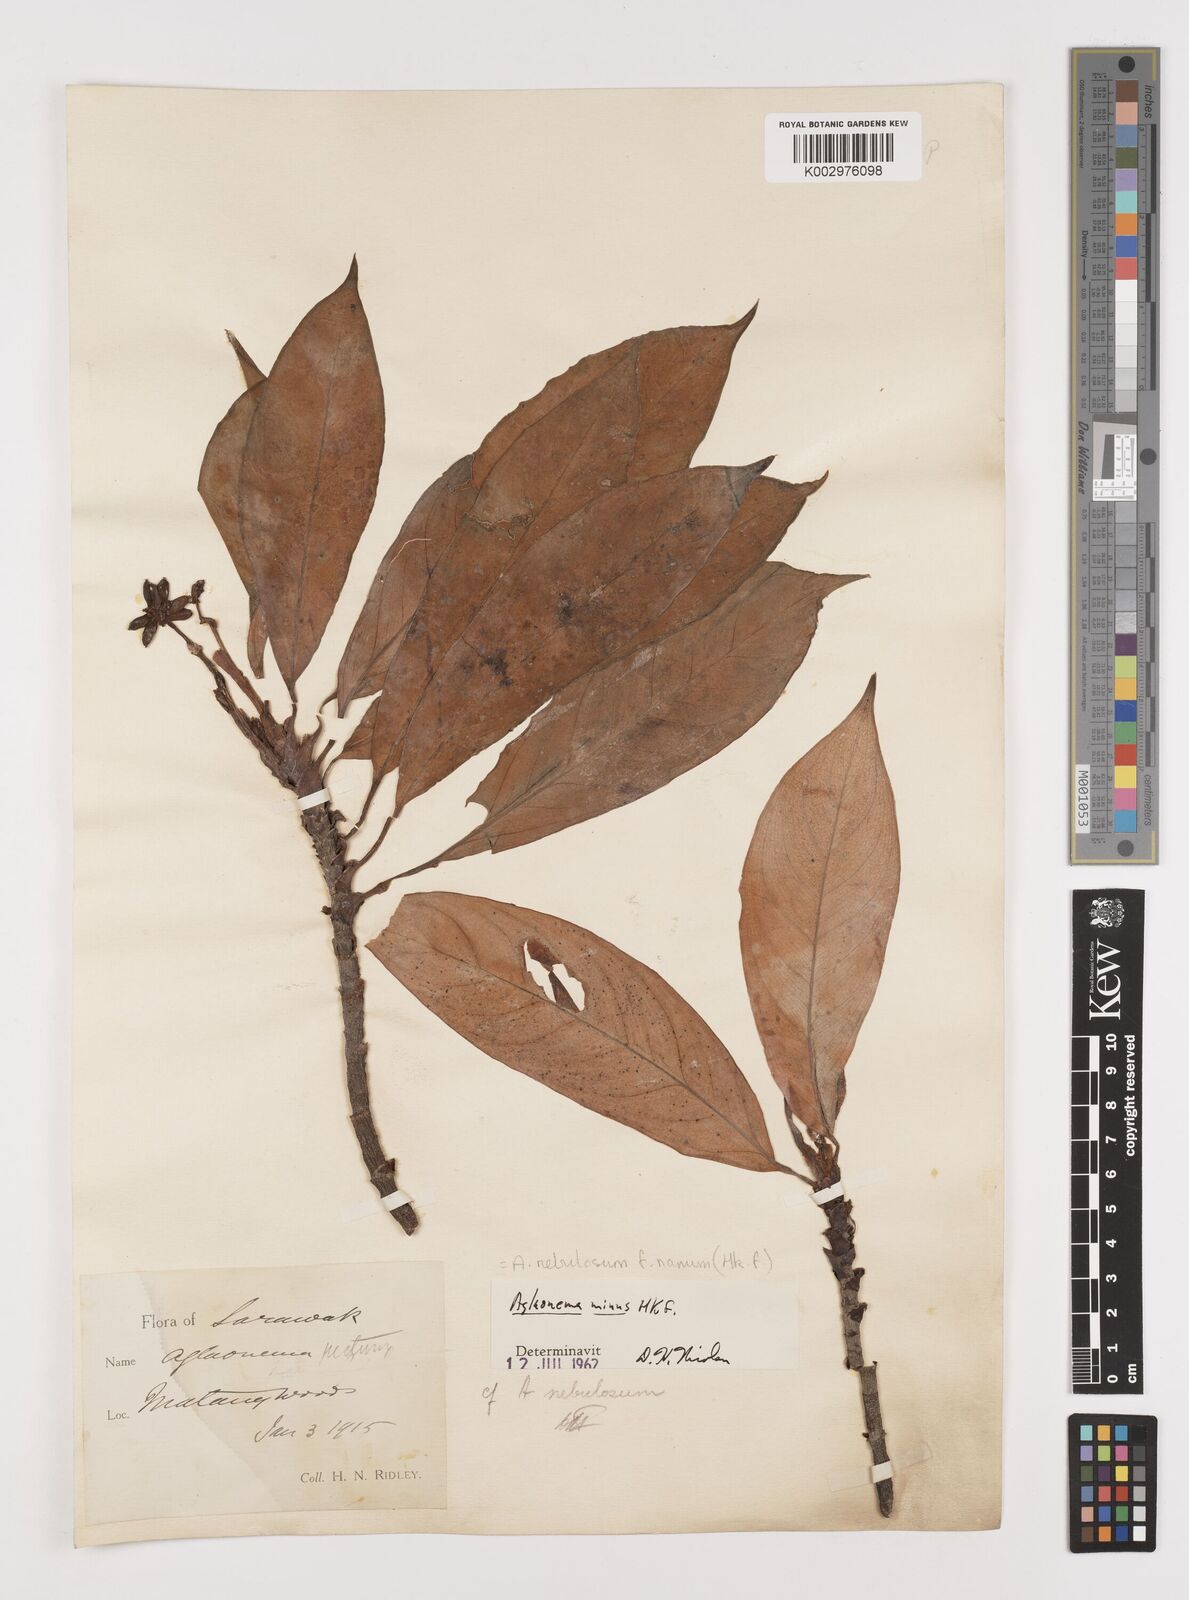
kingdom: Plantae
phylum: Tracheophyta
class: Liliopsida
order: Alismatales
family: Araceae
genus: Aglaonema
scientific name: Aglaonema nebulosum
